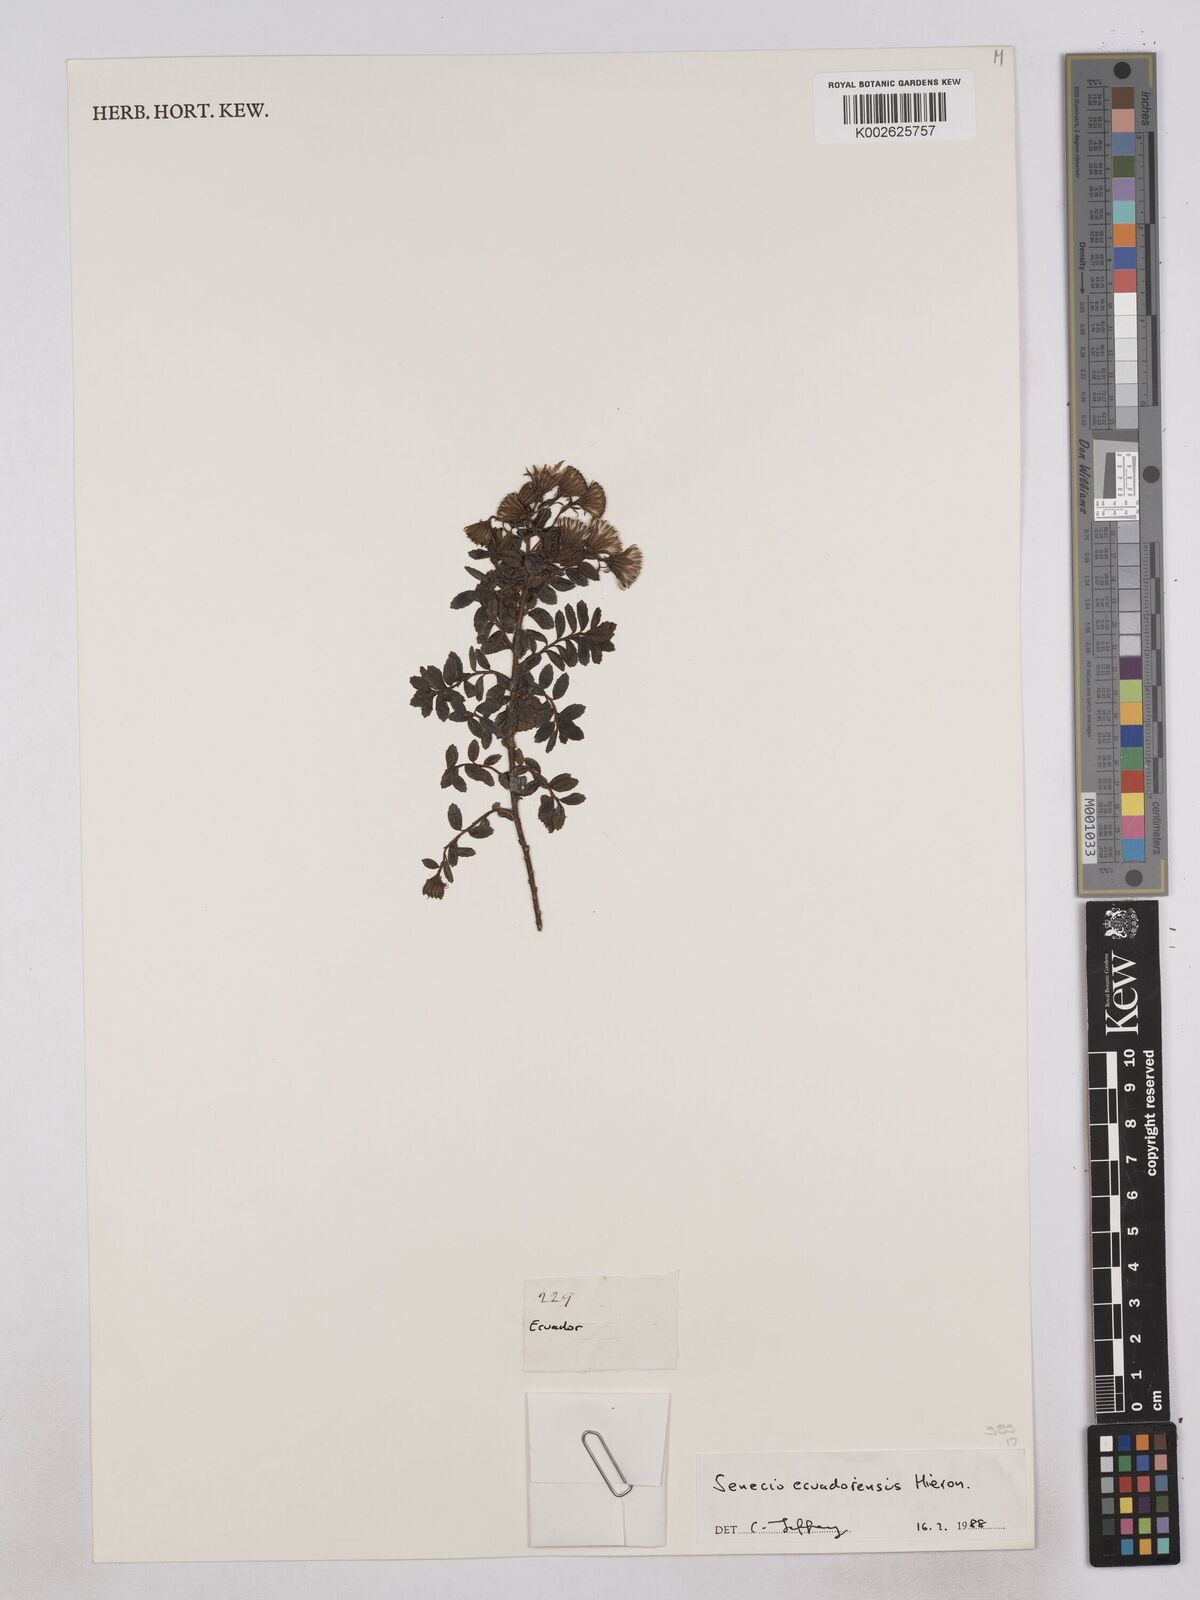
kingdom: Plantae
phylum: Tracheophyta
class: Magnoliopsida
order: Asterales
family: Asteraceae
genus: Monticalia
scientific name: Monticalia myrsinites
